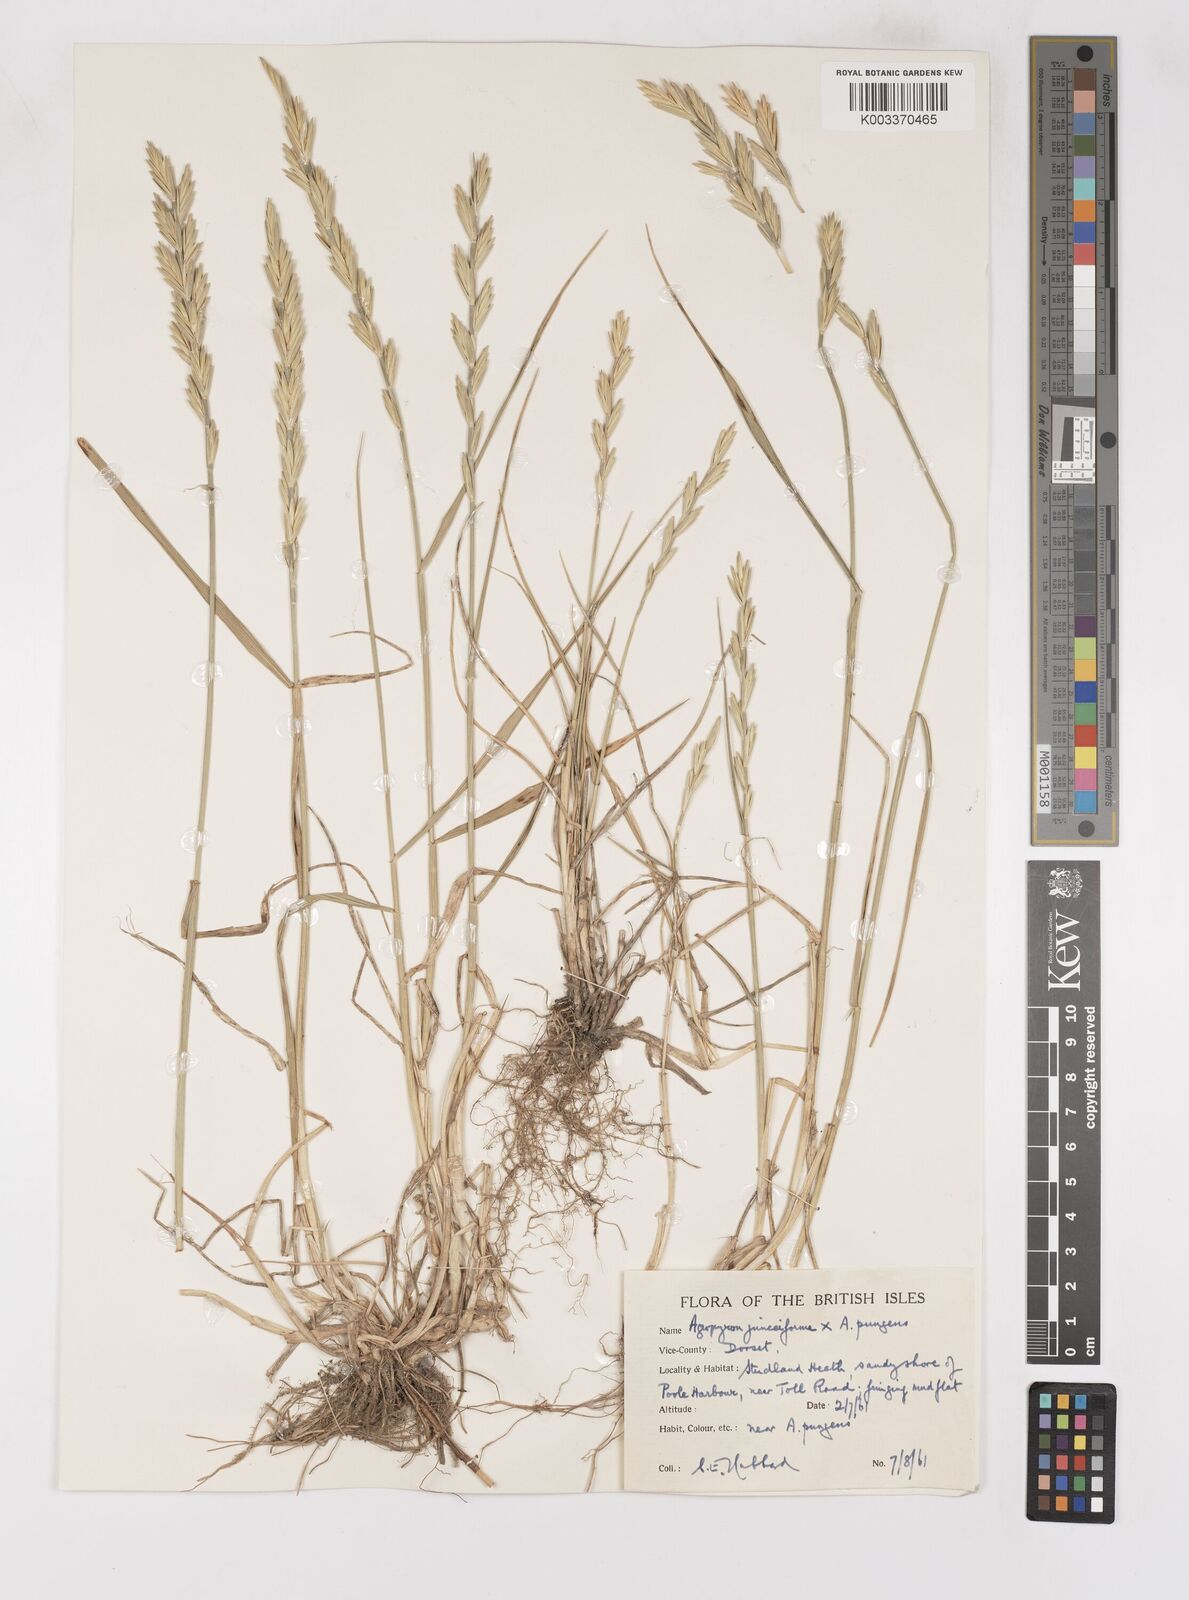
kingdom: Plantae
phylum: Tracheophyta
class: Liliopsida
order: Poales
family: Poaceae
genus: Thinoelymus
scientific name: Thinoelymus obtusiusculus
